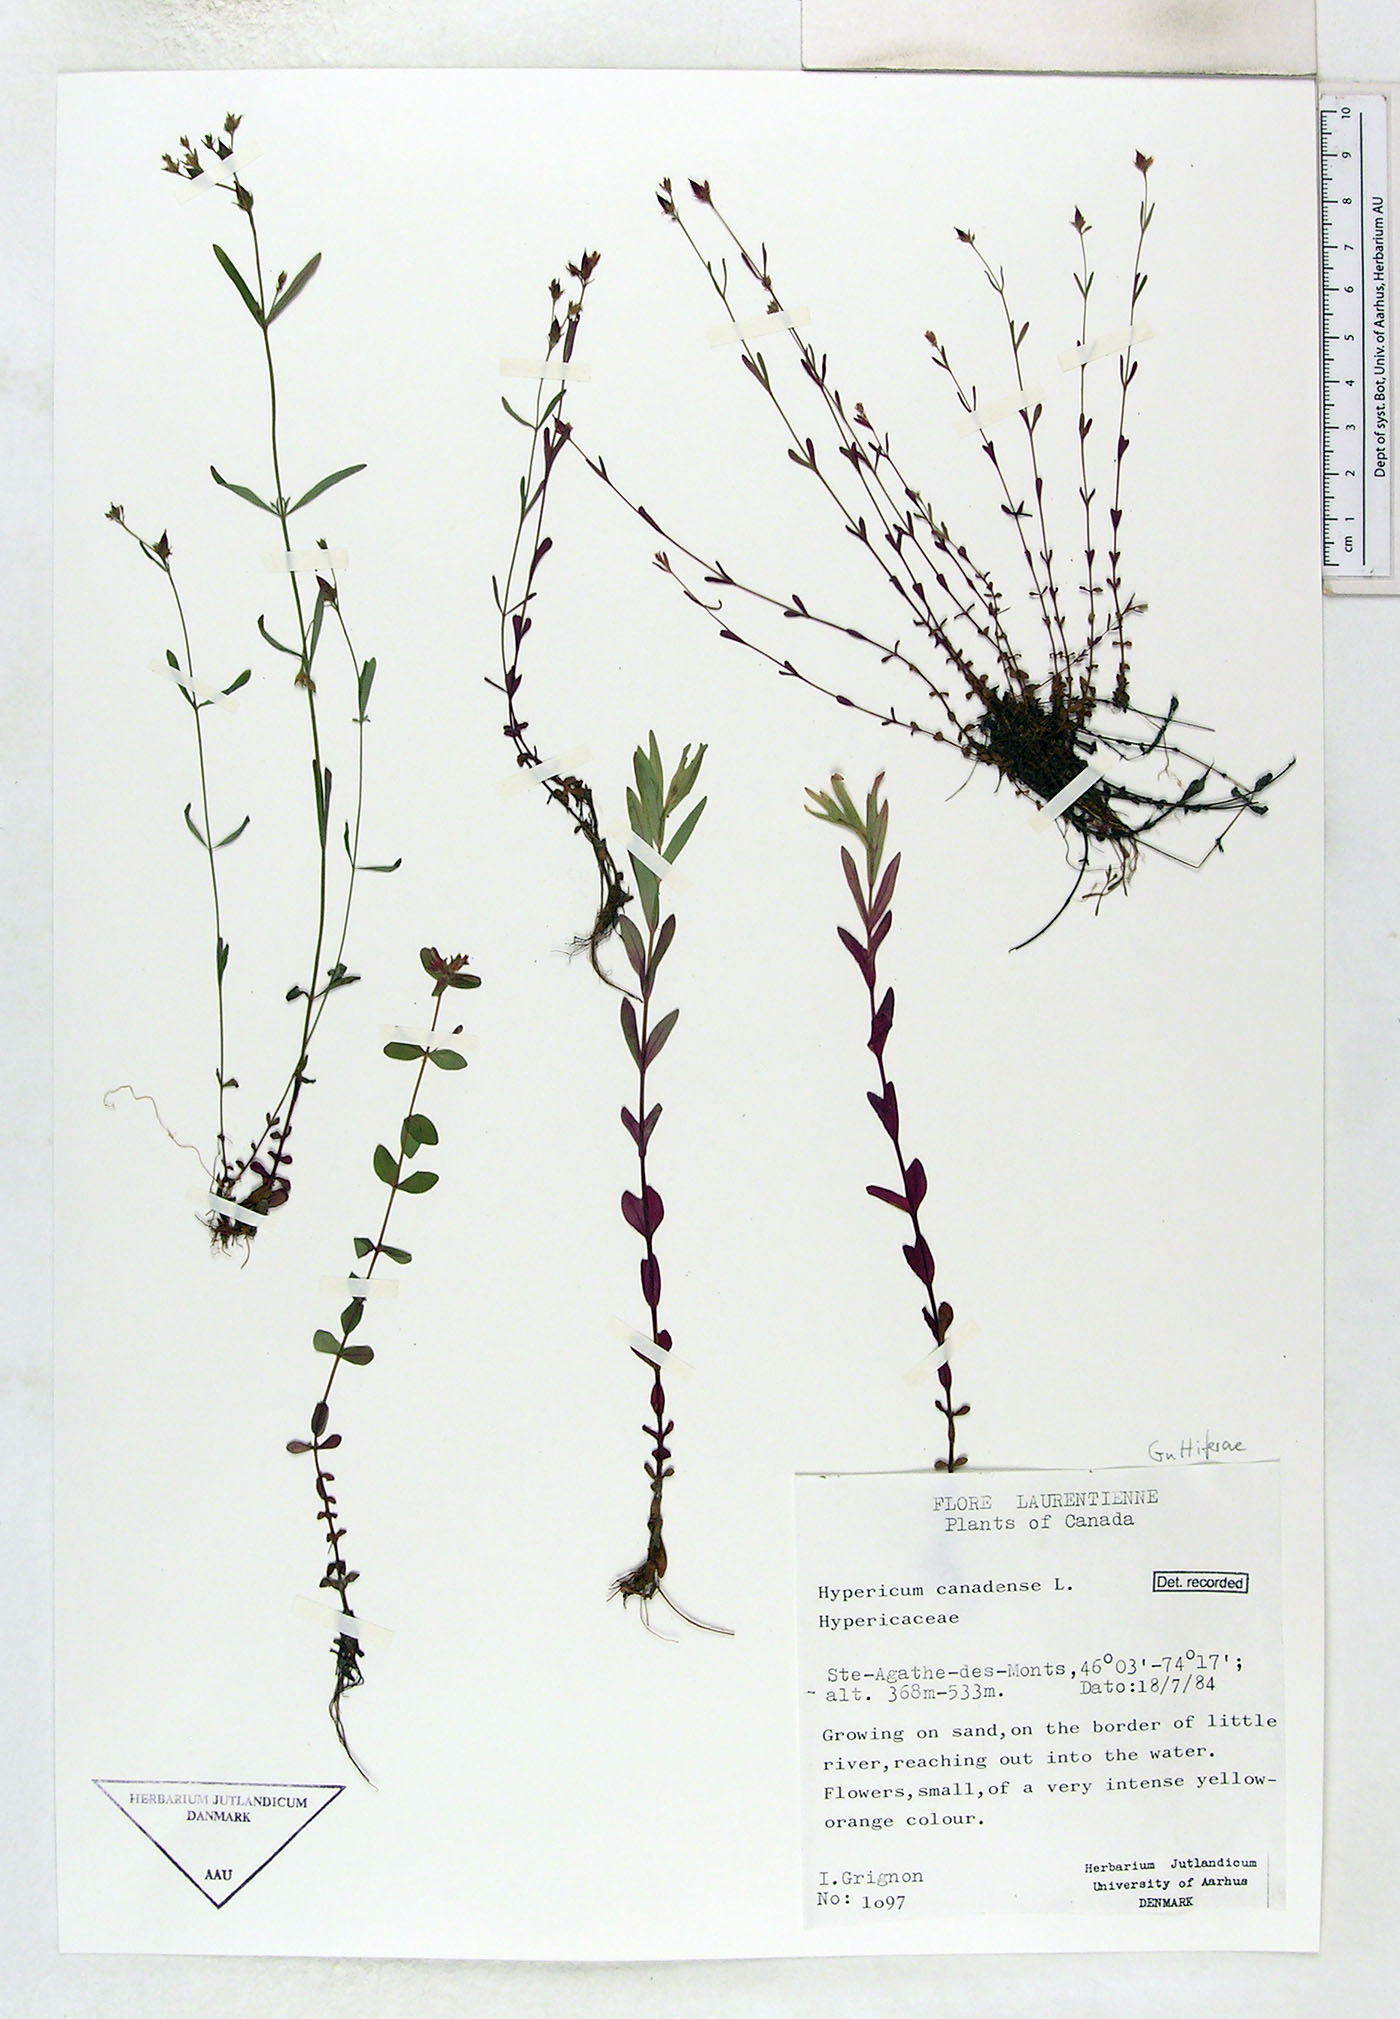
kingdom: Plantae
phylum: Tracheophyta
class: Magnoliopsida
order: Malpighiales
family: Hypericaceae
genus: Hypericum
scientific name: Hypericum canadense
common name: Irish st. john's-wort
